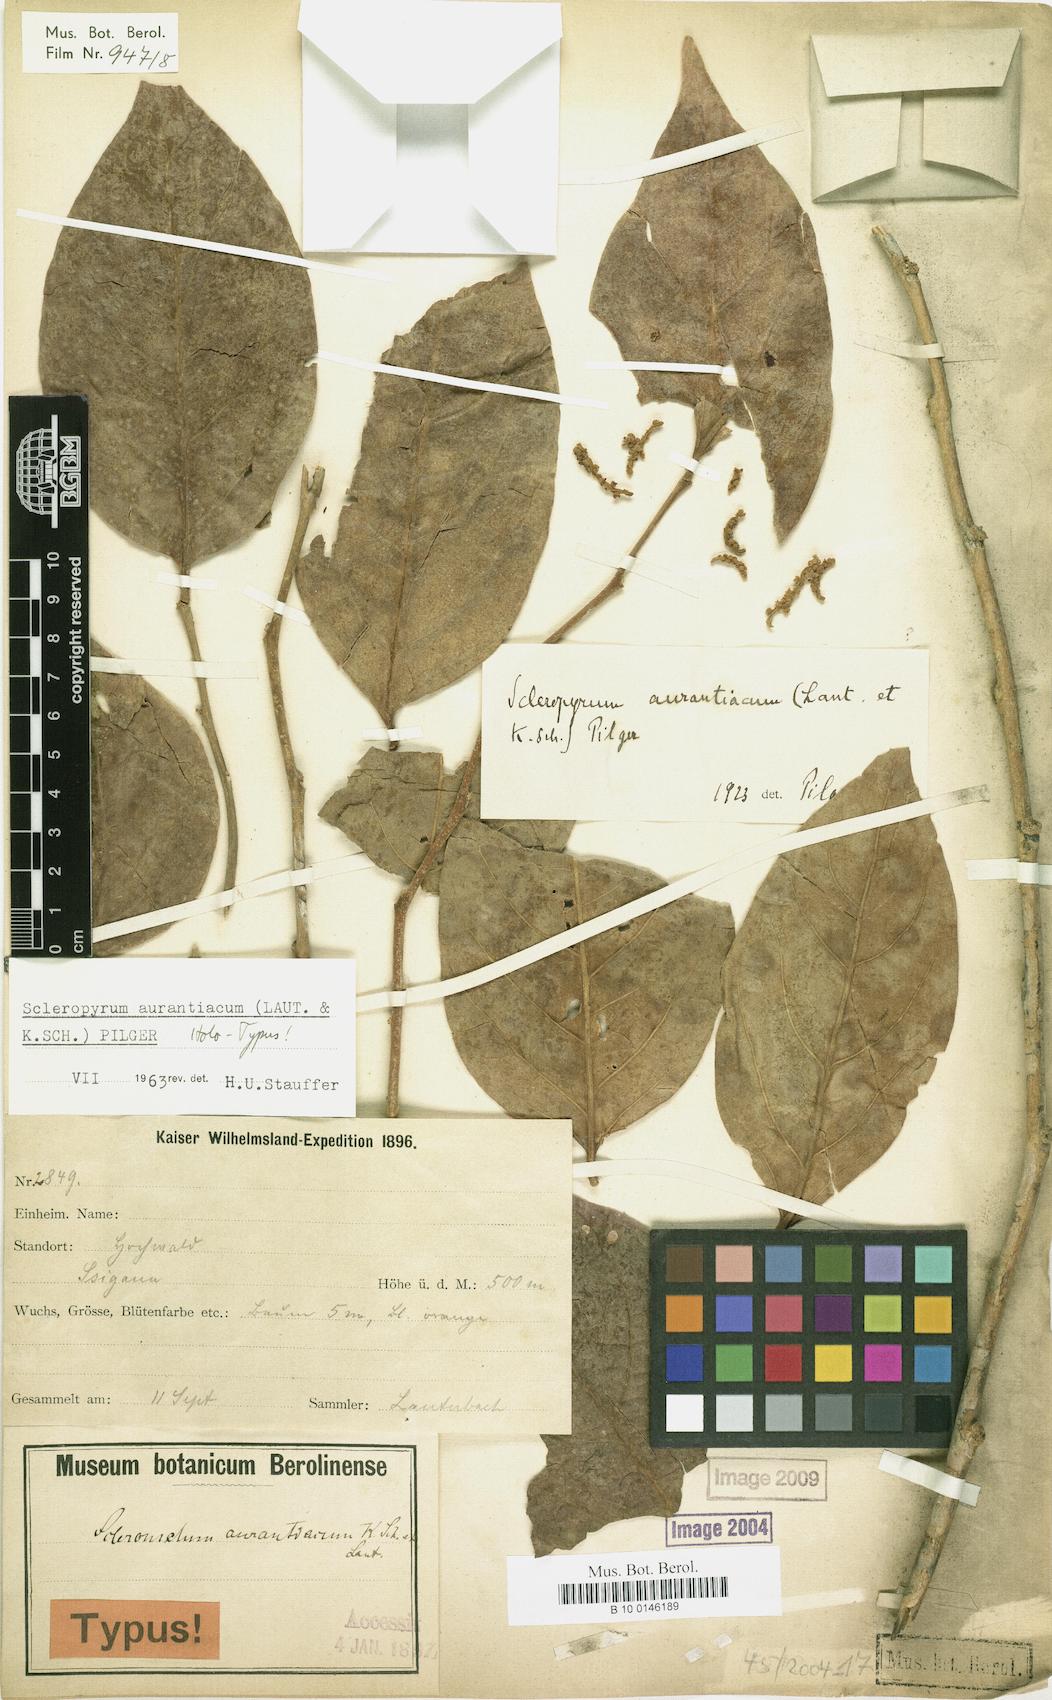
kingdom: Plantae
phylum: Tracheophyta
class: Magnoliopsida
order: Santalales
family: Cervantesiaceae
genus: Scleropyrum
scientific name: Scleropyrum aurantiacum
